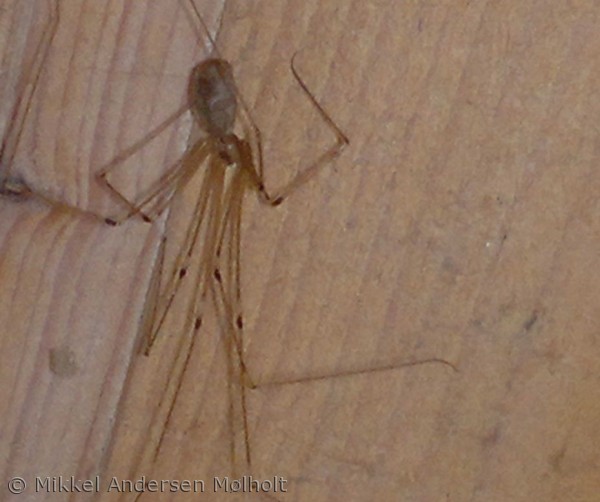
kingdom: Animalia
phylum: Arthropoda
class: Arachnida
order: Araneae
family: Pholcidae
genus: Pholcus
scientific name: Pholcus phalangioides
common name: Mejeredderkop
